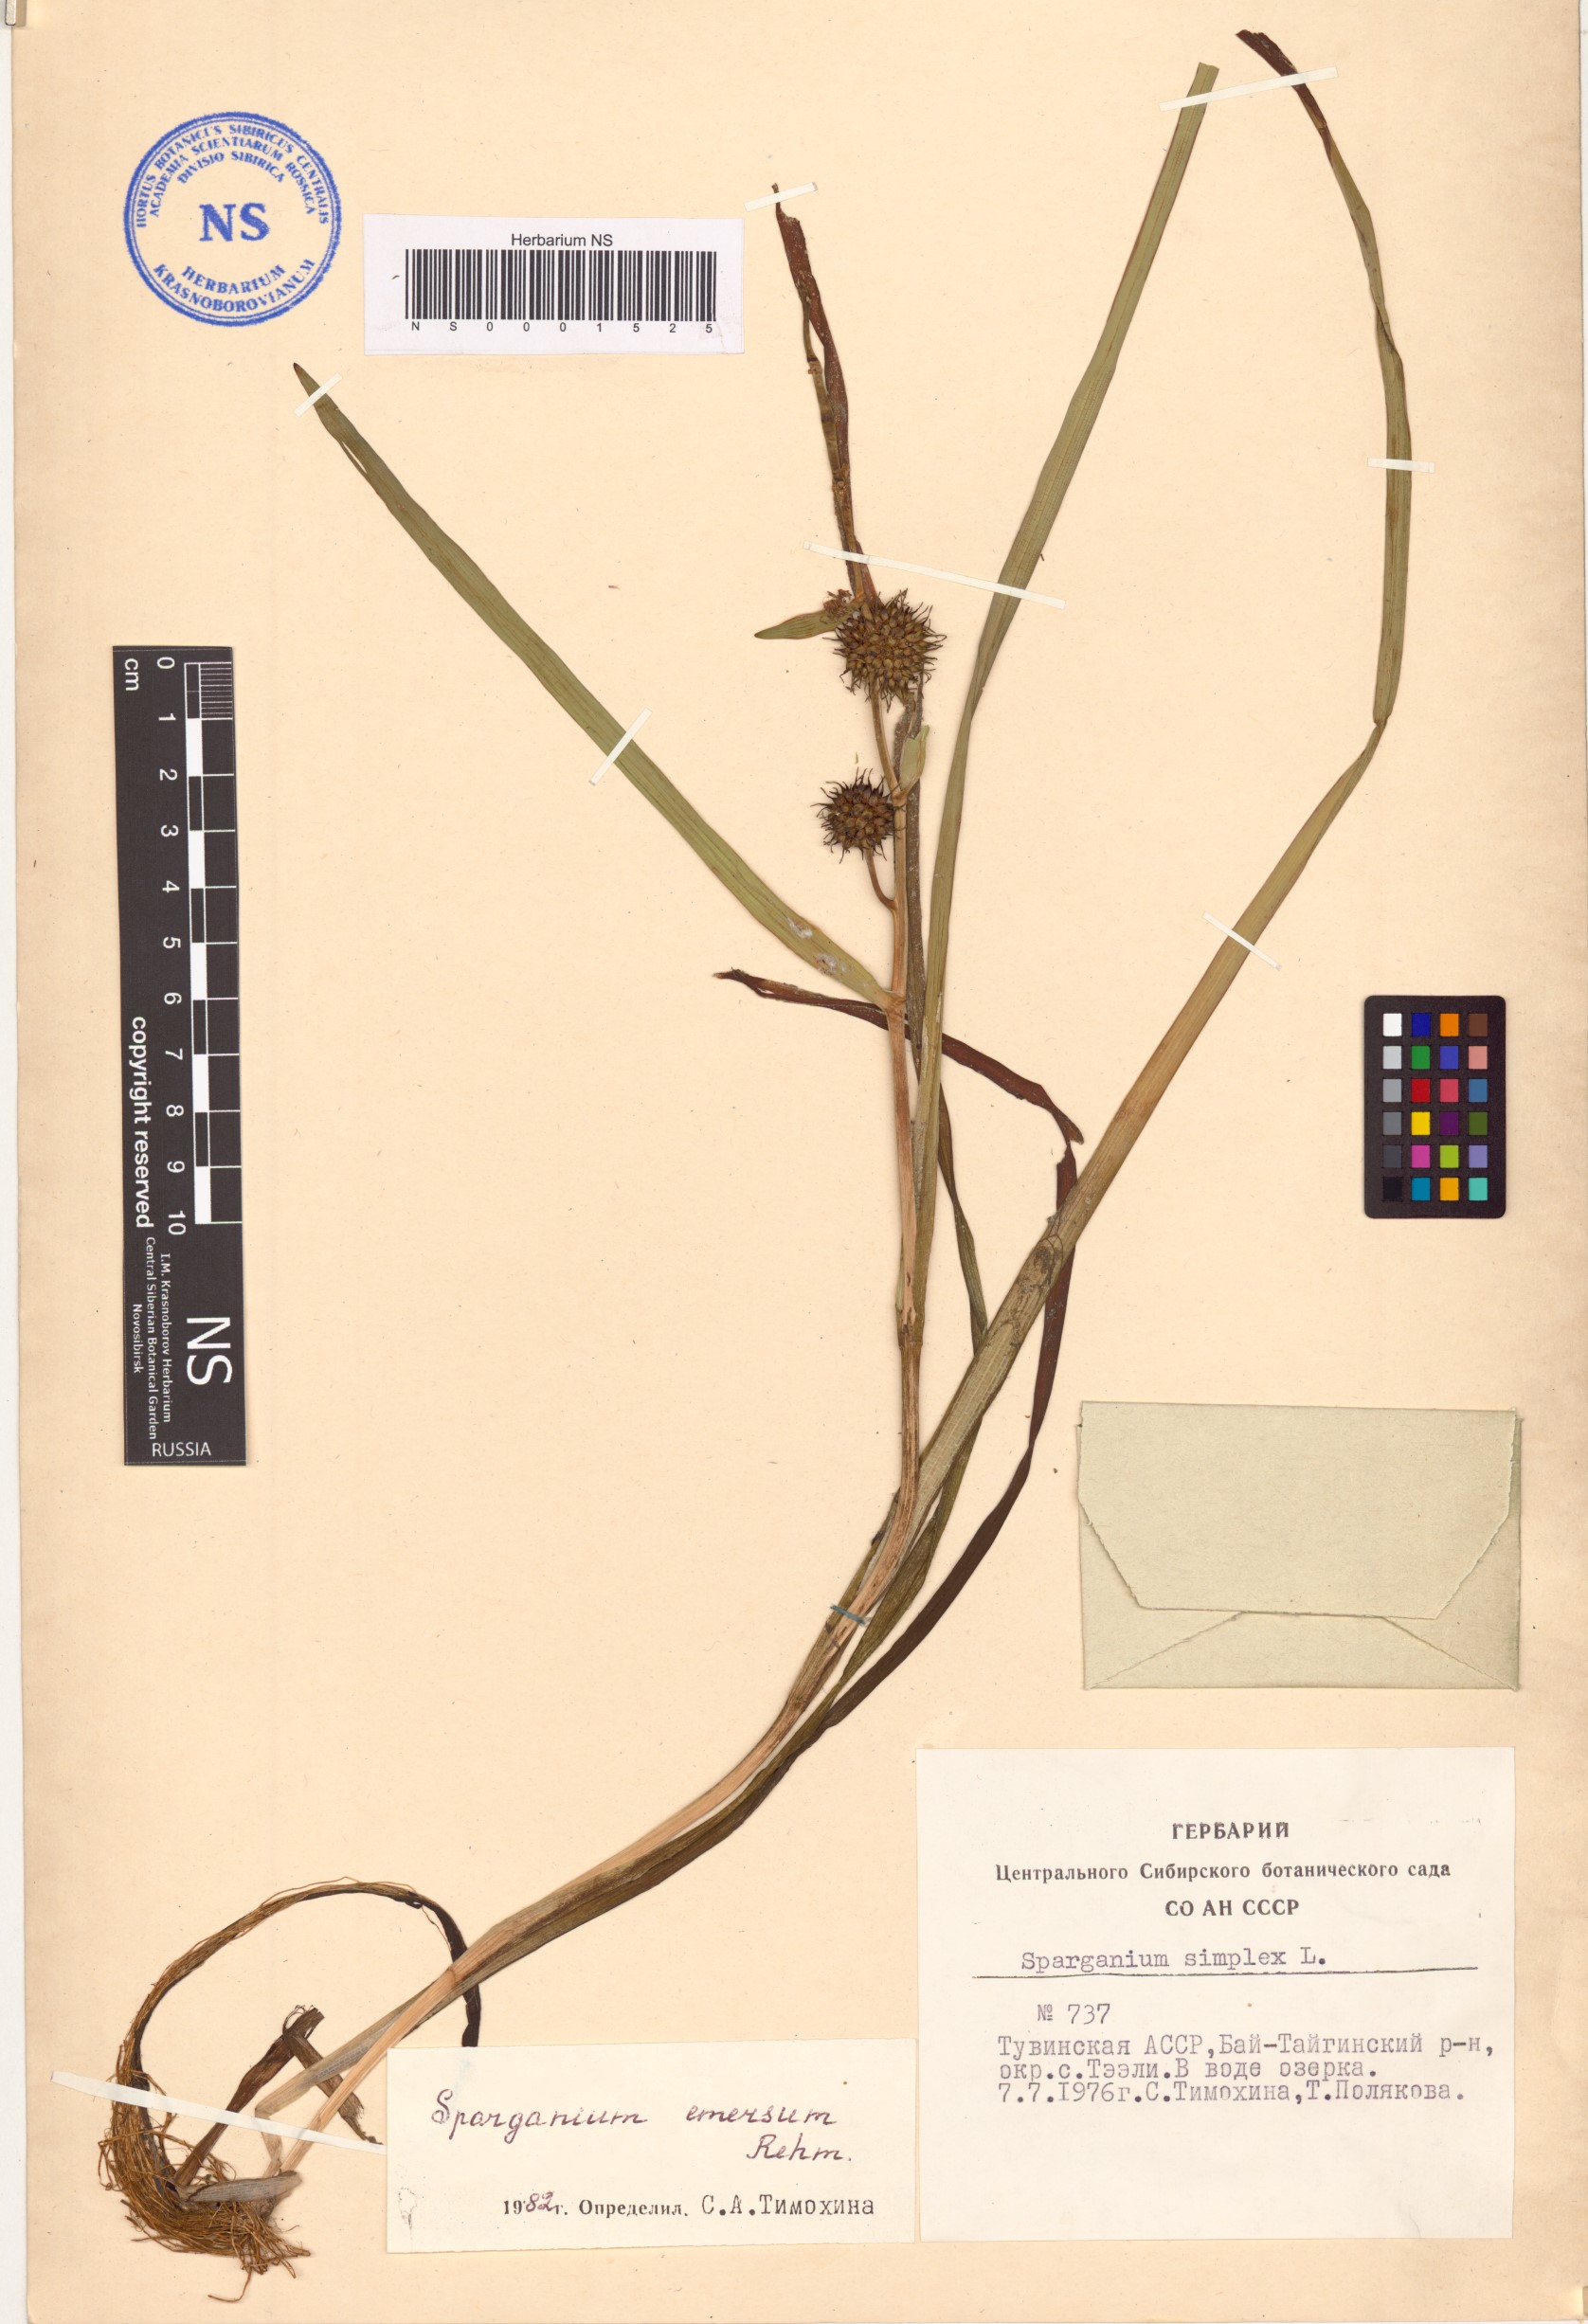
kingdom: Plantae
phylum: Tracheophyta
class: Liliopsida
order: Poales
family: Typhaceae
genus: Sparganium
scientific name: Sparganium emersum
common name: Unbranched bur-reed
